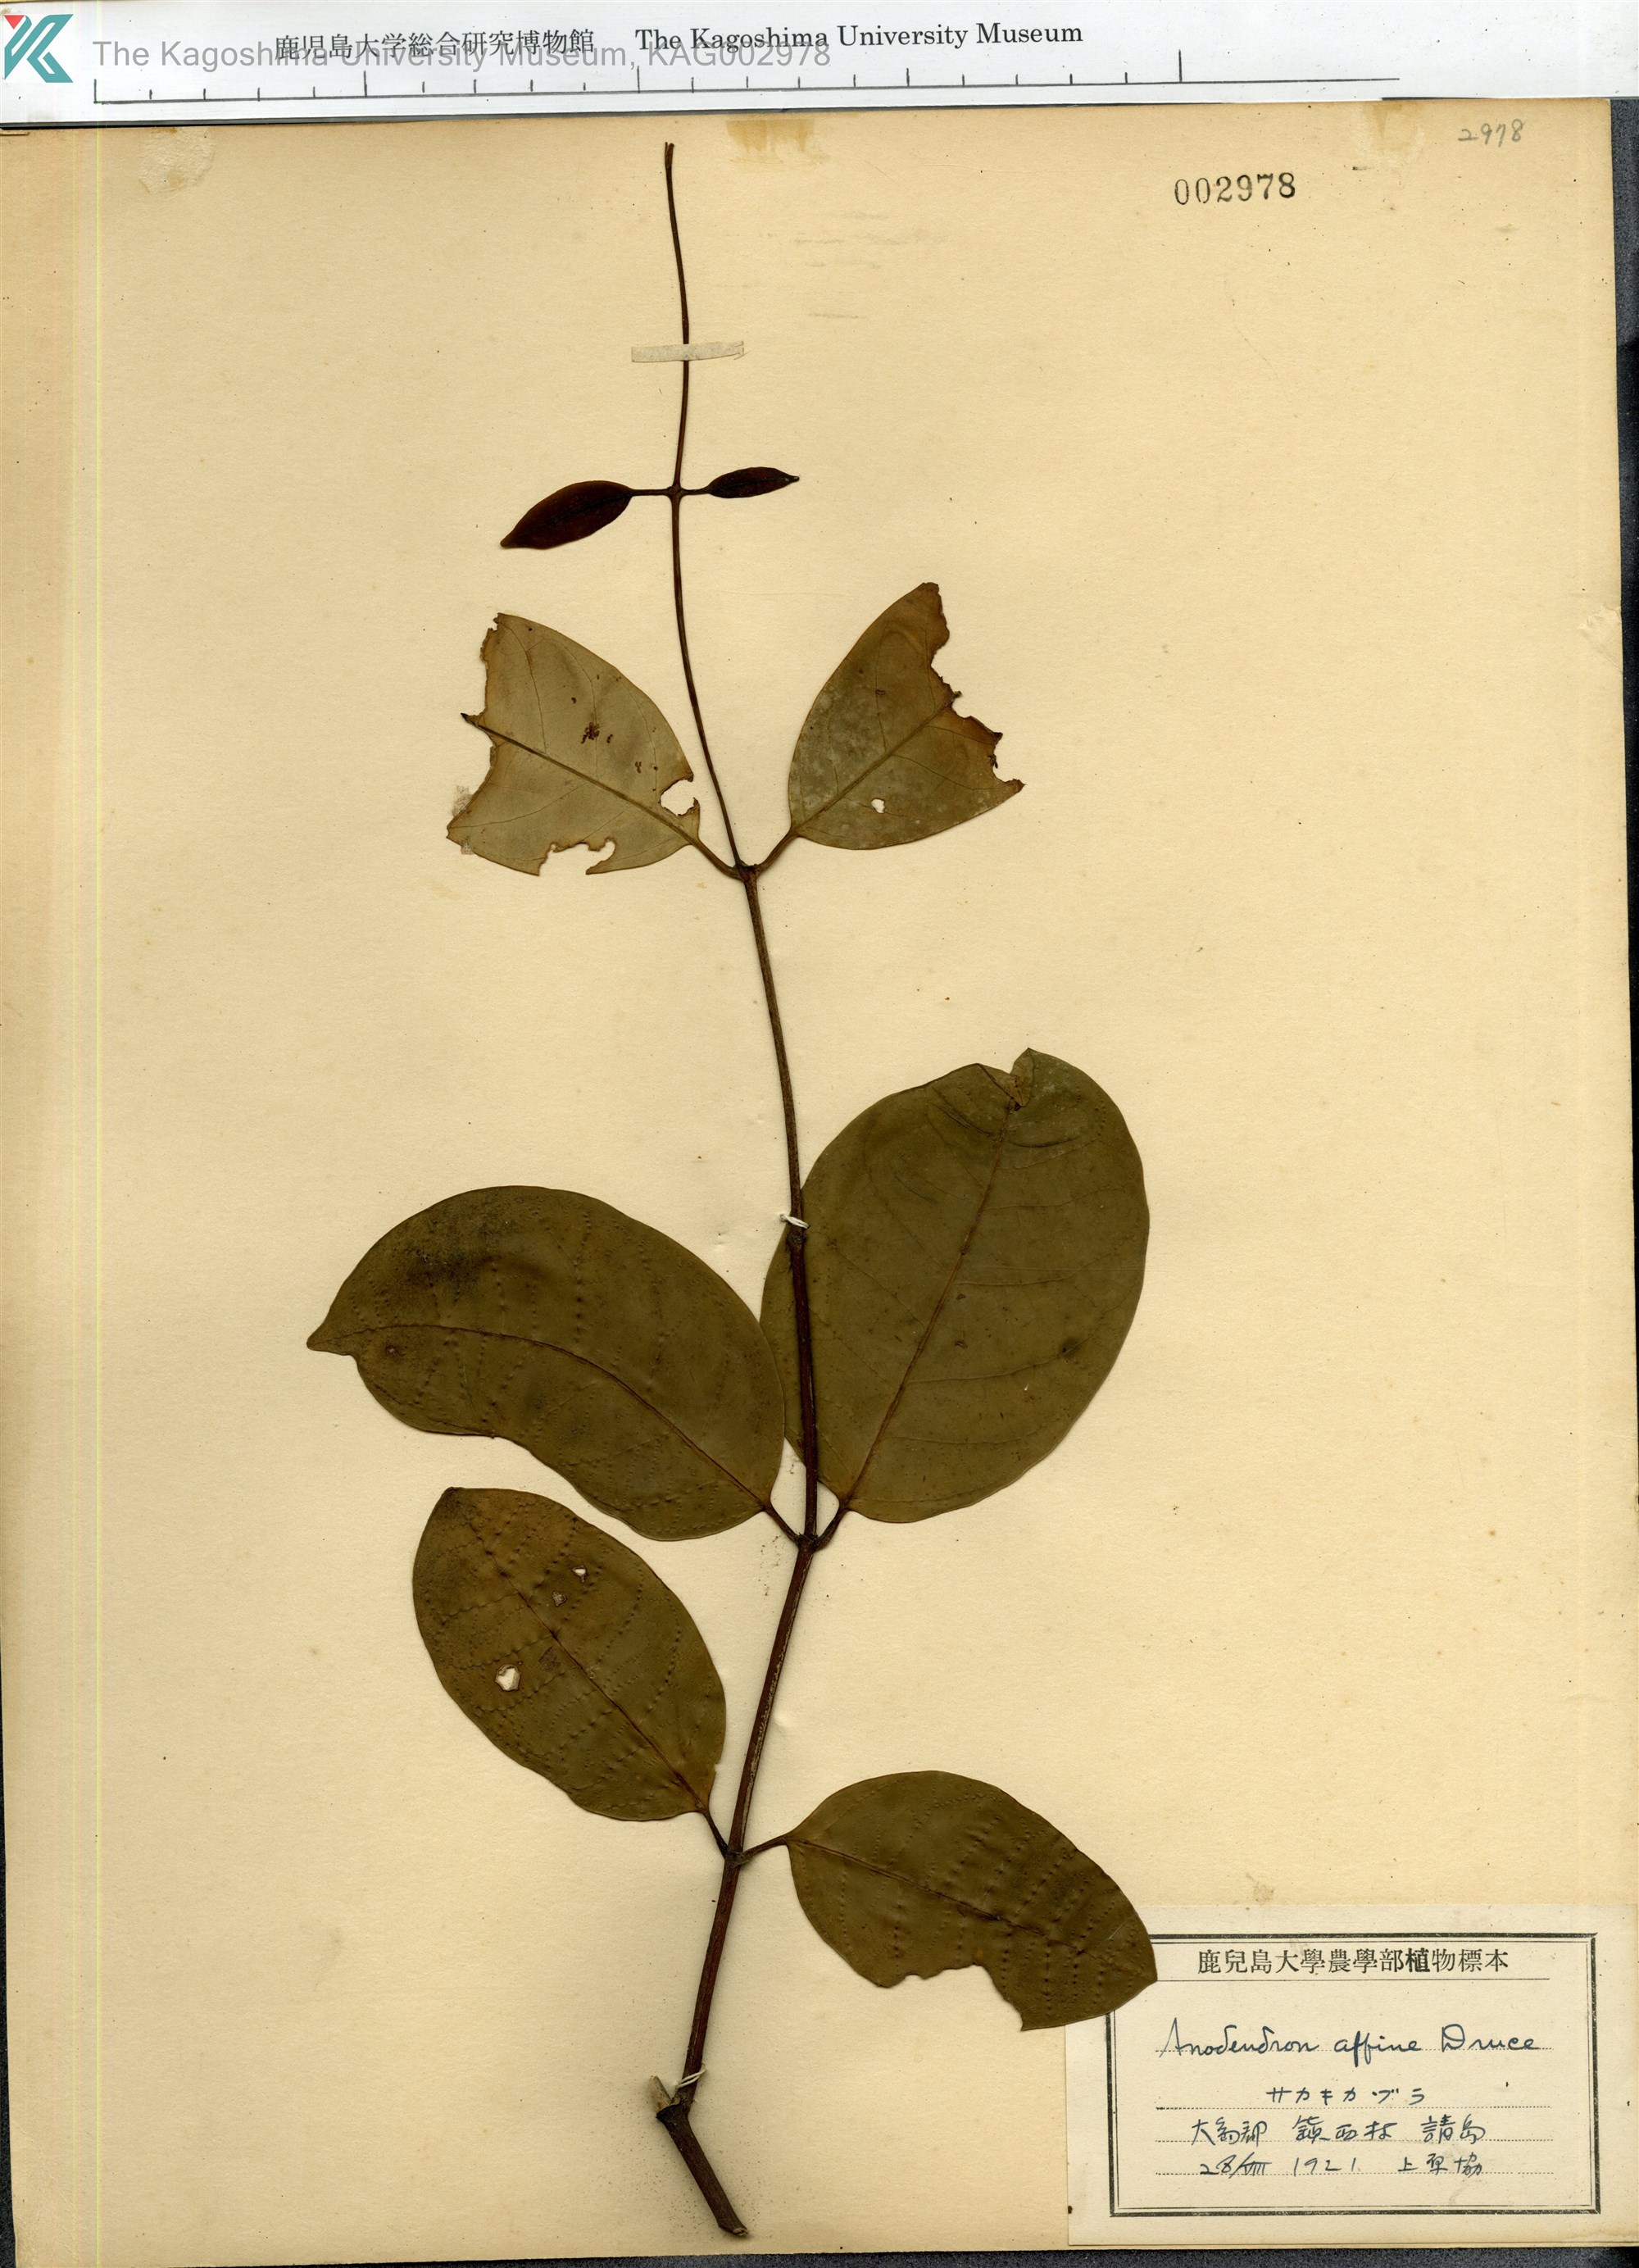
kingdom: Plantae
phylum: Tracheophyta
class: Magnoliopsida
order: Gentianales
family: Apocynaceae
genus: Anodendron
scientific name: Anodendron affine
